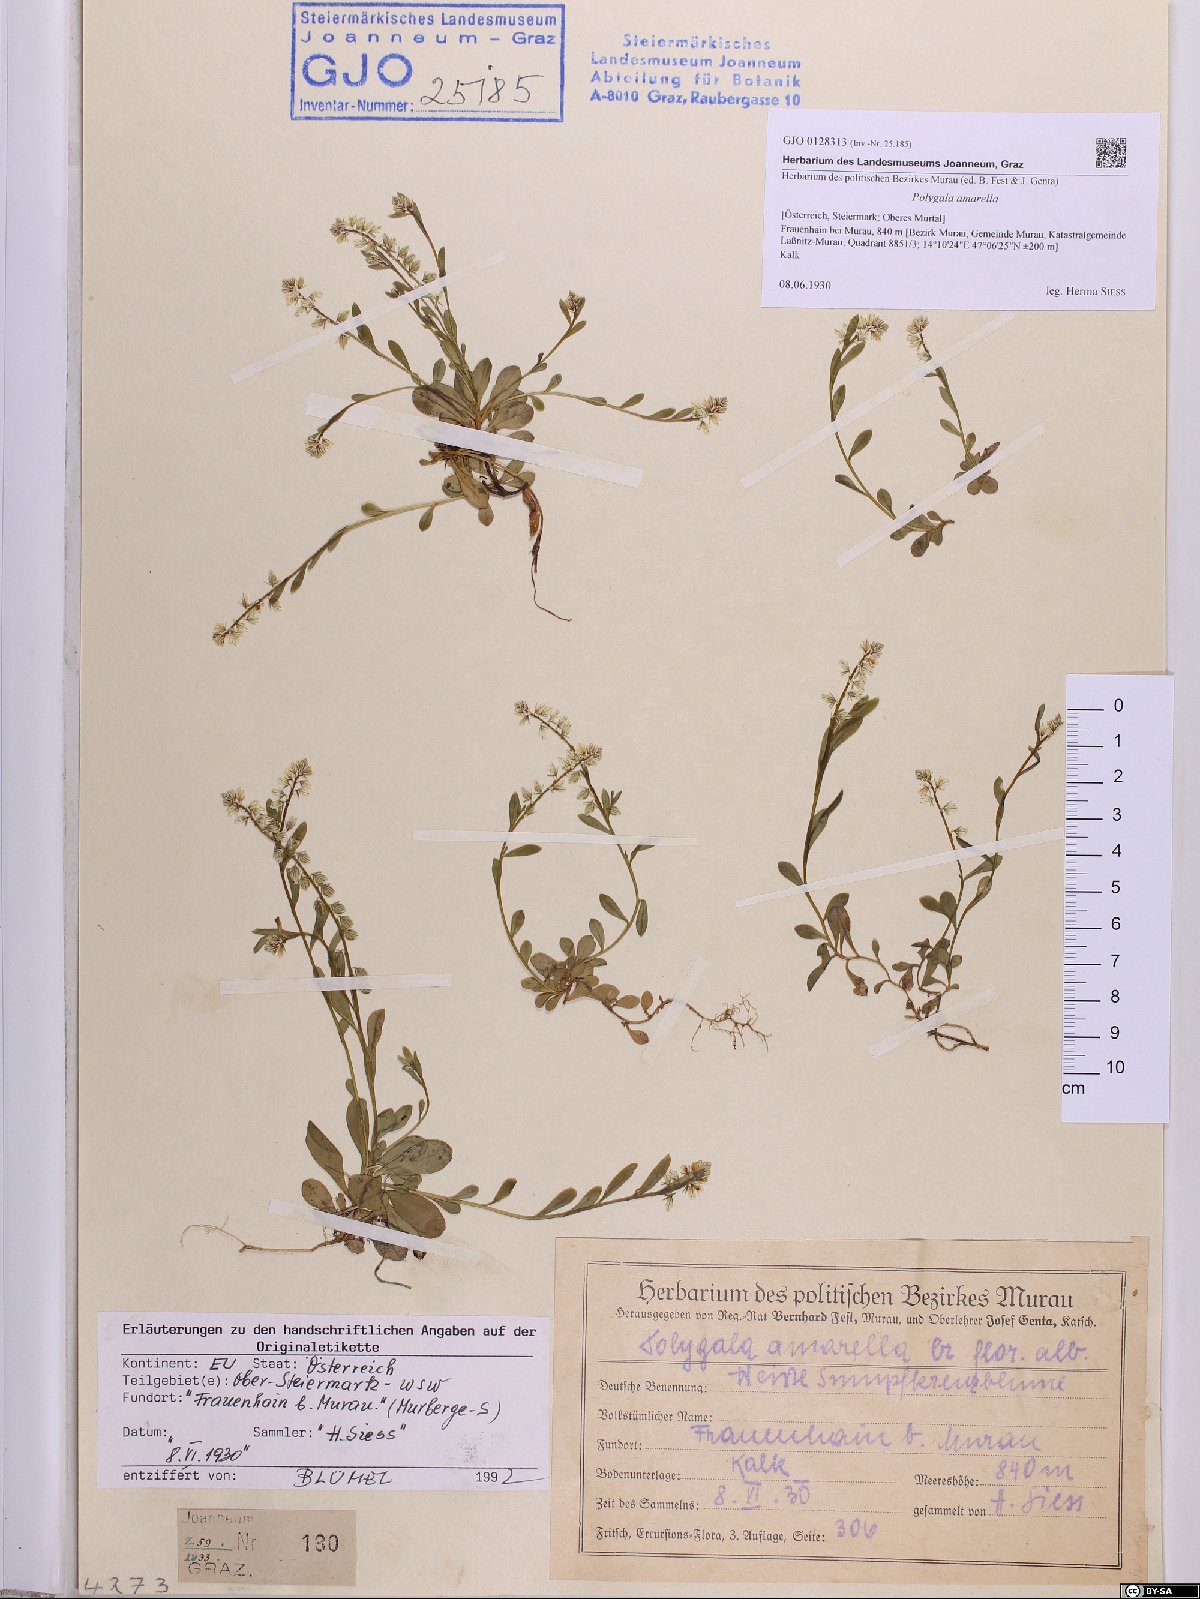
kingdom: Plantae
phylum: Tracheophyta
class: Magnoliopsida
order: Fabales
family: Polygalaceae
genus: Polygala
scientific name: Polygala amarella
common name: Dwarf milkwort
